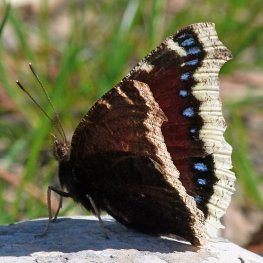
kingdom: Animalia
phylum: Arthropoda
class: Insecta
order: Lepidoptera
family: Nymphalidae
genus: Nymphalis
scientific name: Nymphalis antiopa
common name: Mourning Cloak
